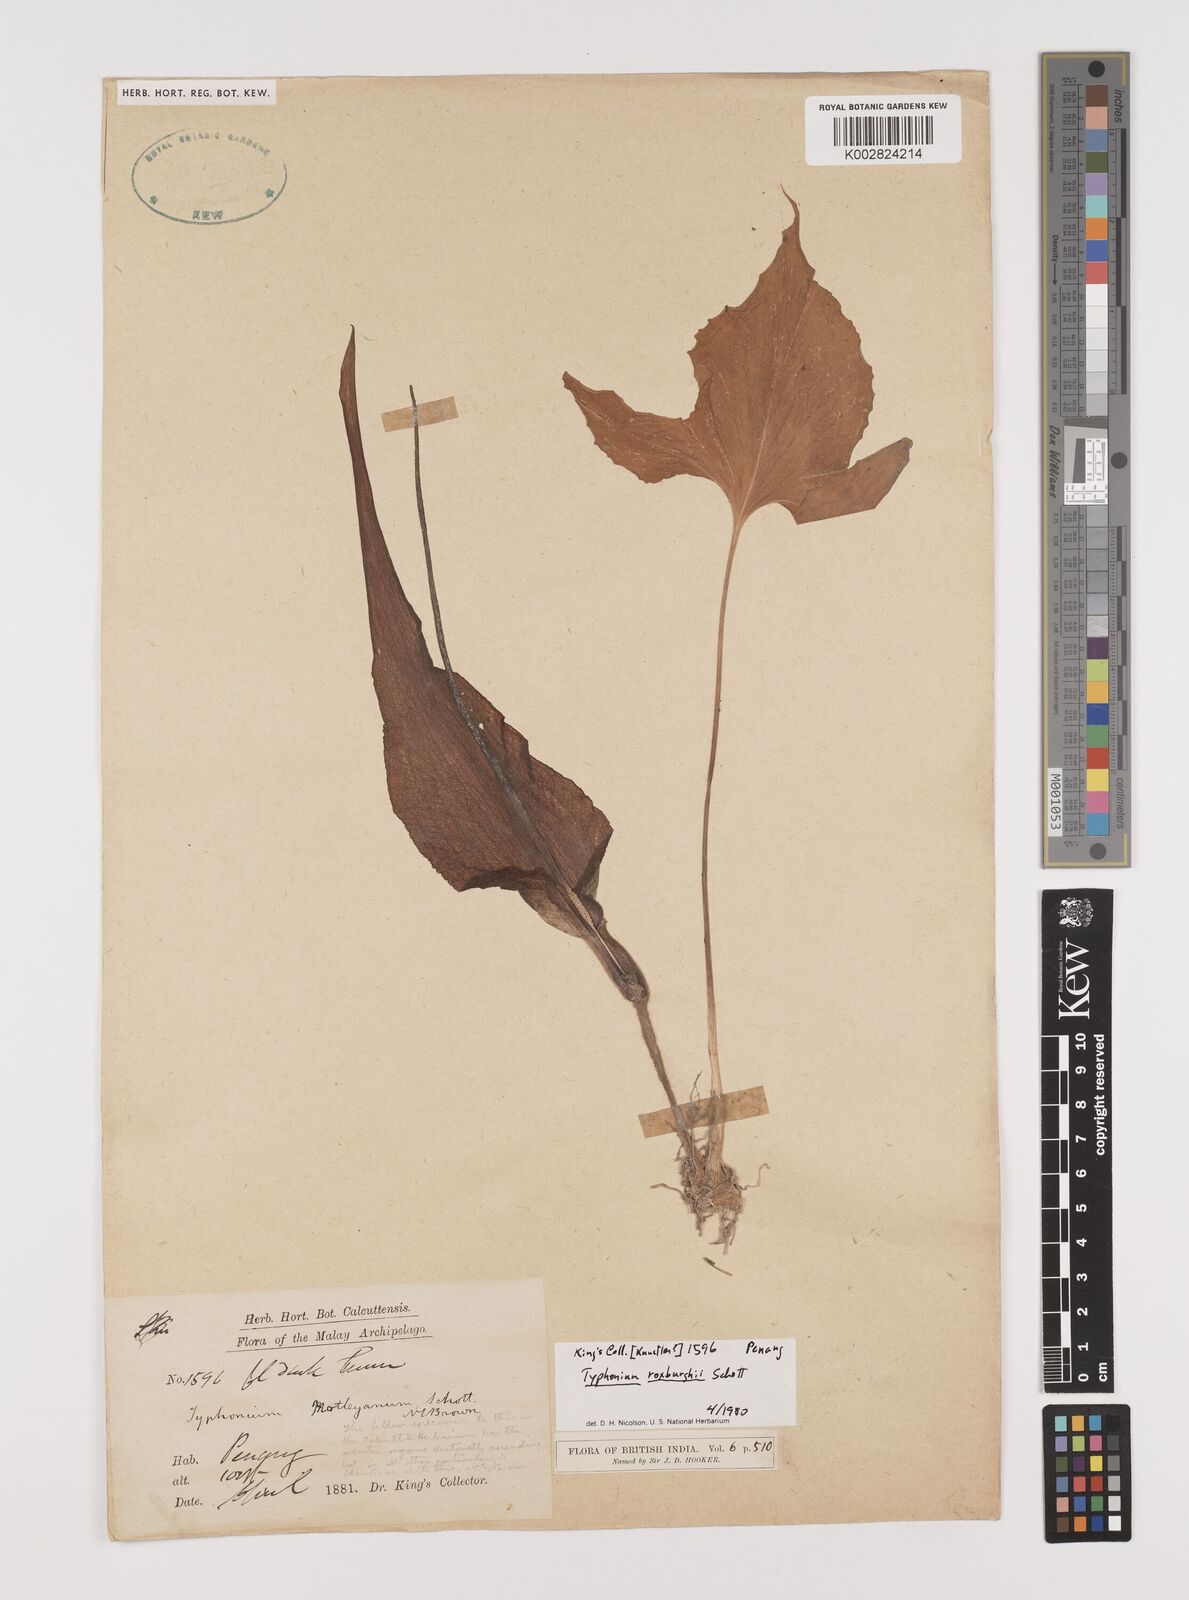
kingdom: Plantae
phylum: Tracheophyta
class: Liliopsida
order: Alismatales
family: Araceae
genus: Typhonium
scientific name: Typhonium roxburghii
